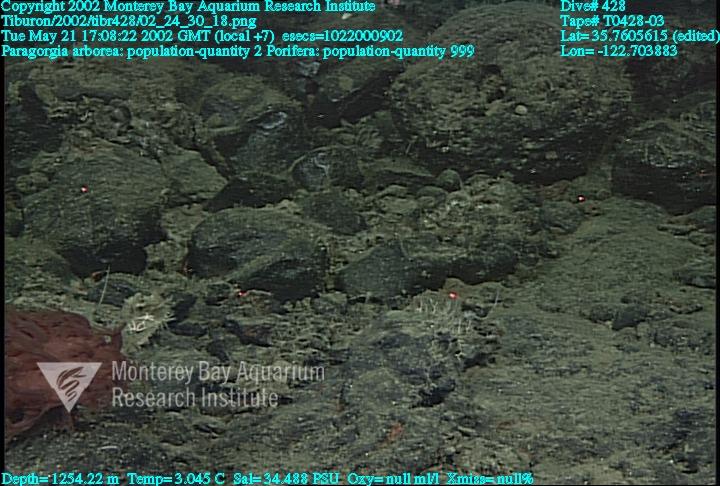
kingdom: Animalia
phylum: Porifera
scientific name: Porifera
